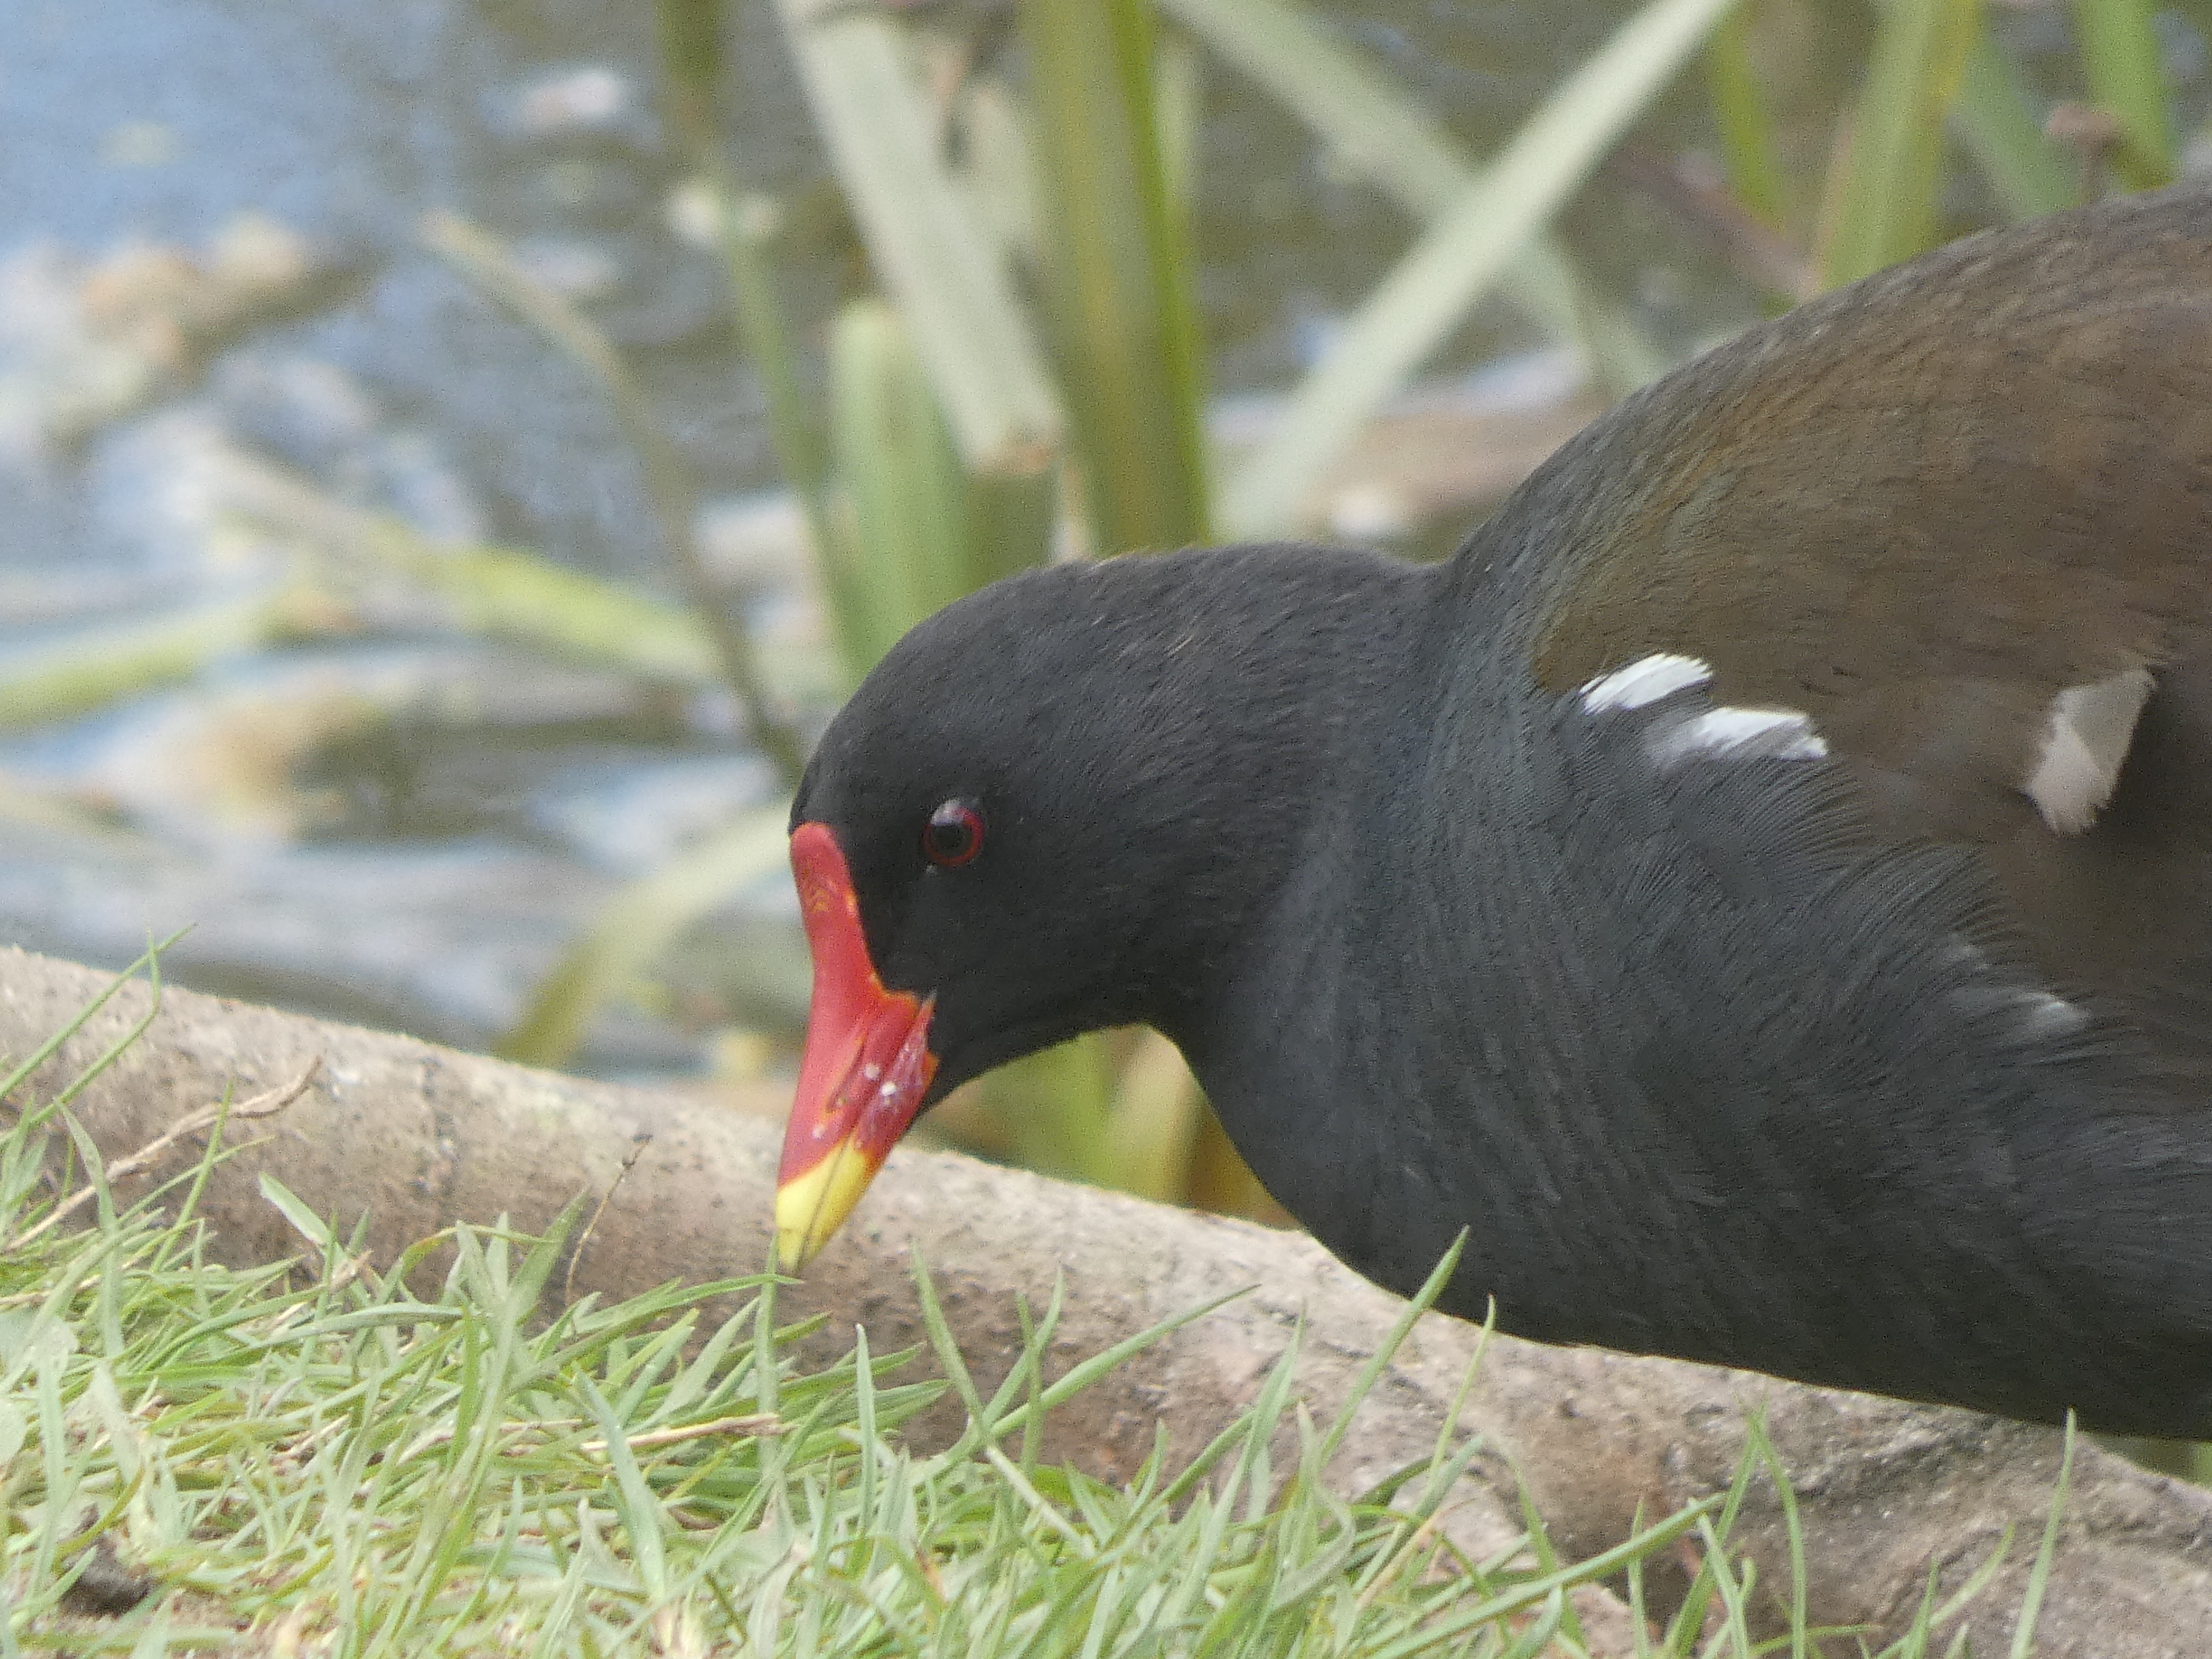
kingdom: Animalia
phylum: Chordata
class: Aves
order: Gruiformes
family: Rallidae
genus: Gallinula
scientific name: Gallinula chloropus
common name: Grønbenet rørhøne
